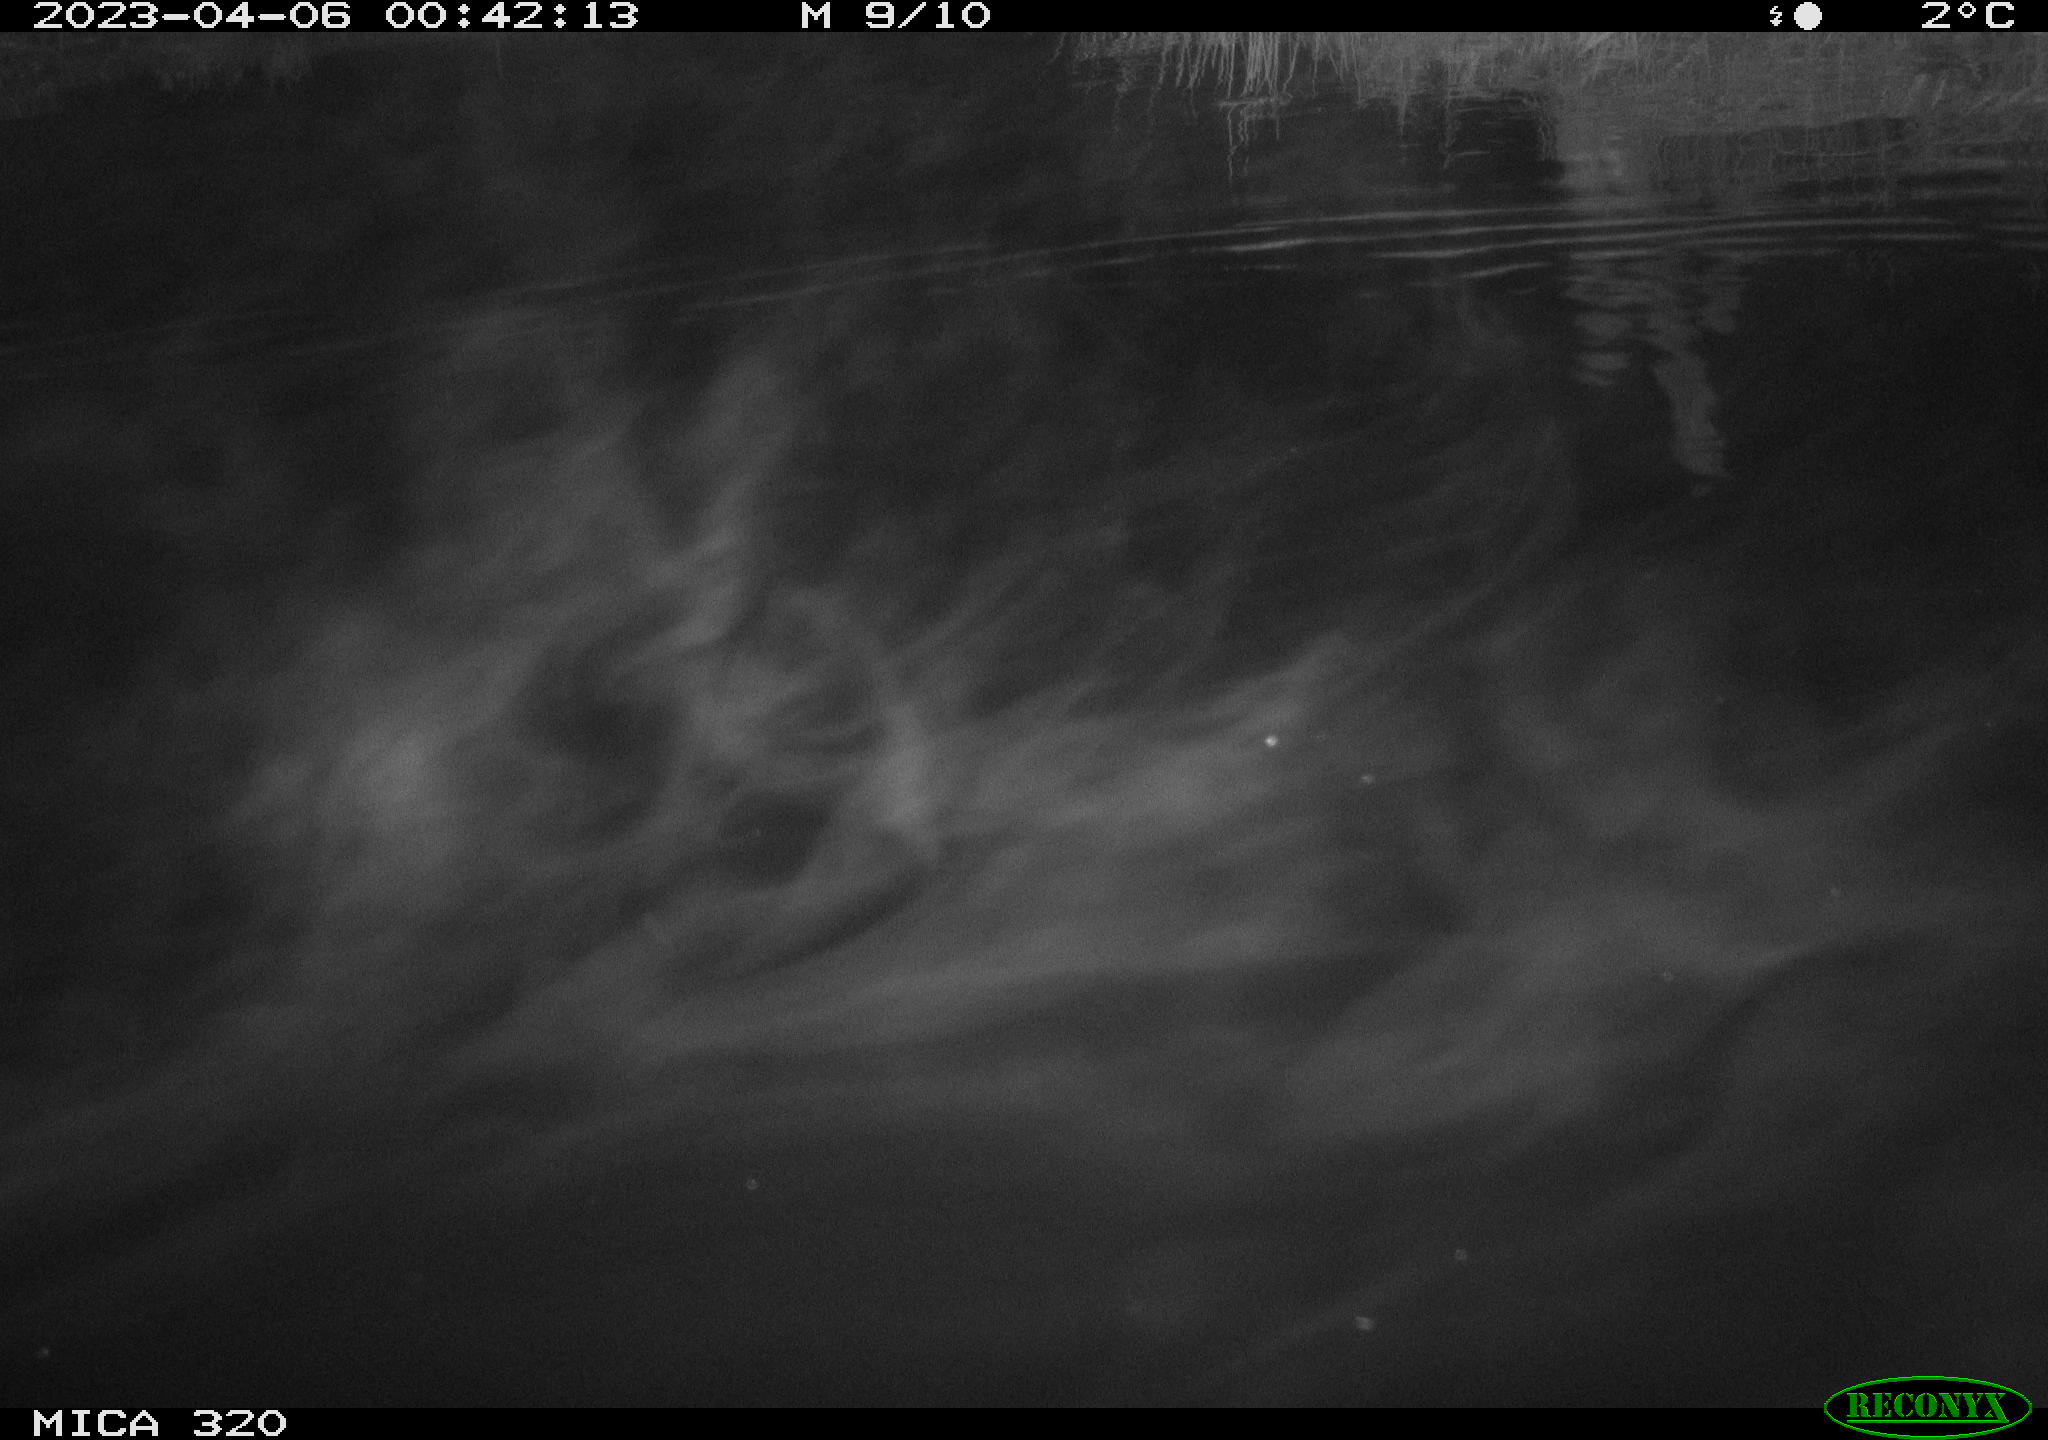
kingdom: Animalia
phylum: Chordata
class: Mammalia
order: Rodentia
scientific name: Rodentia
